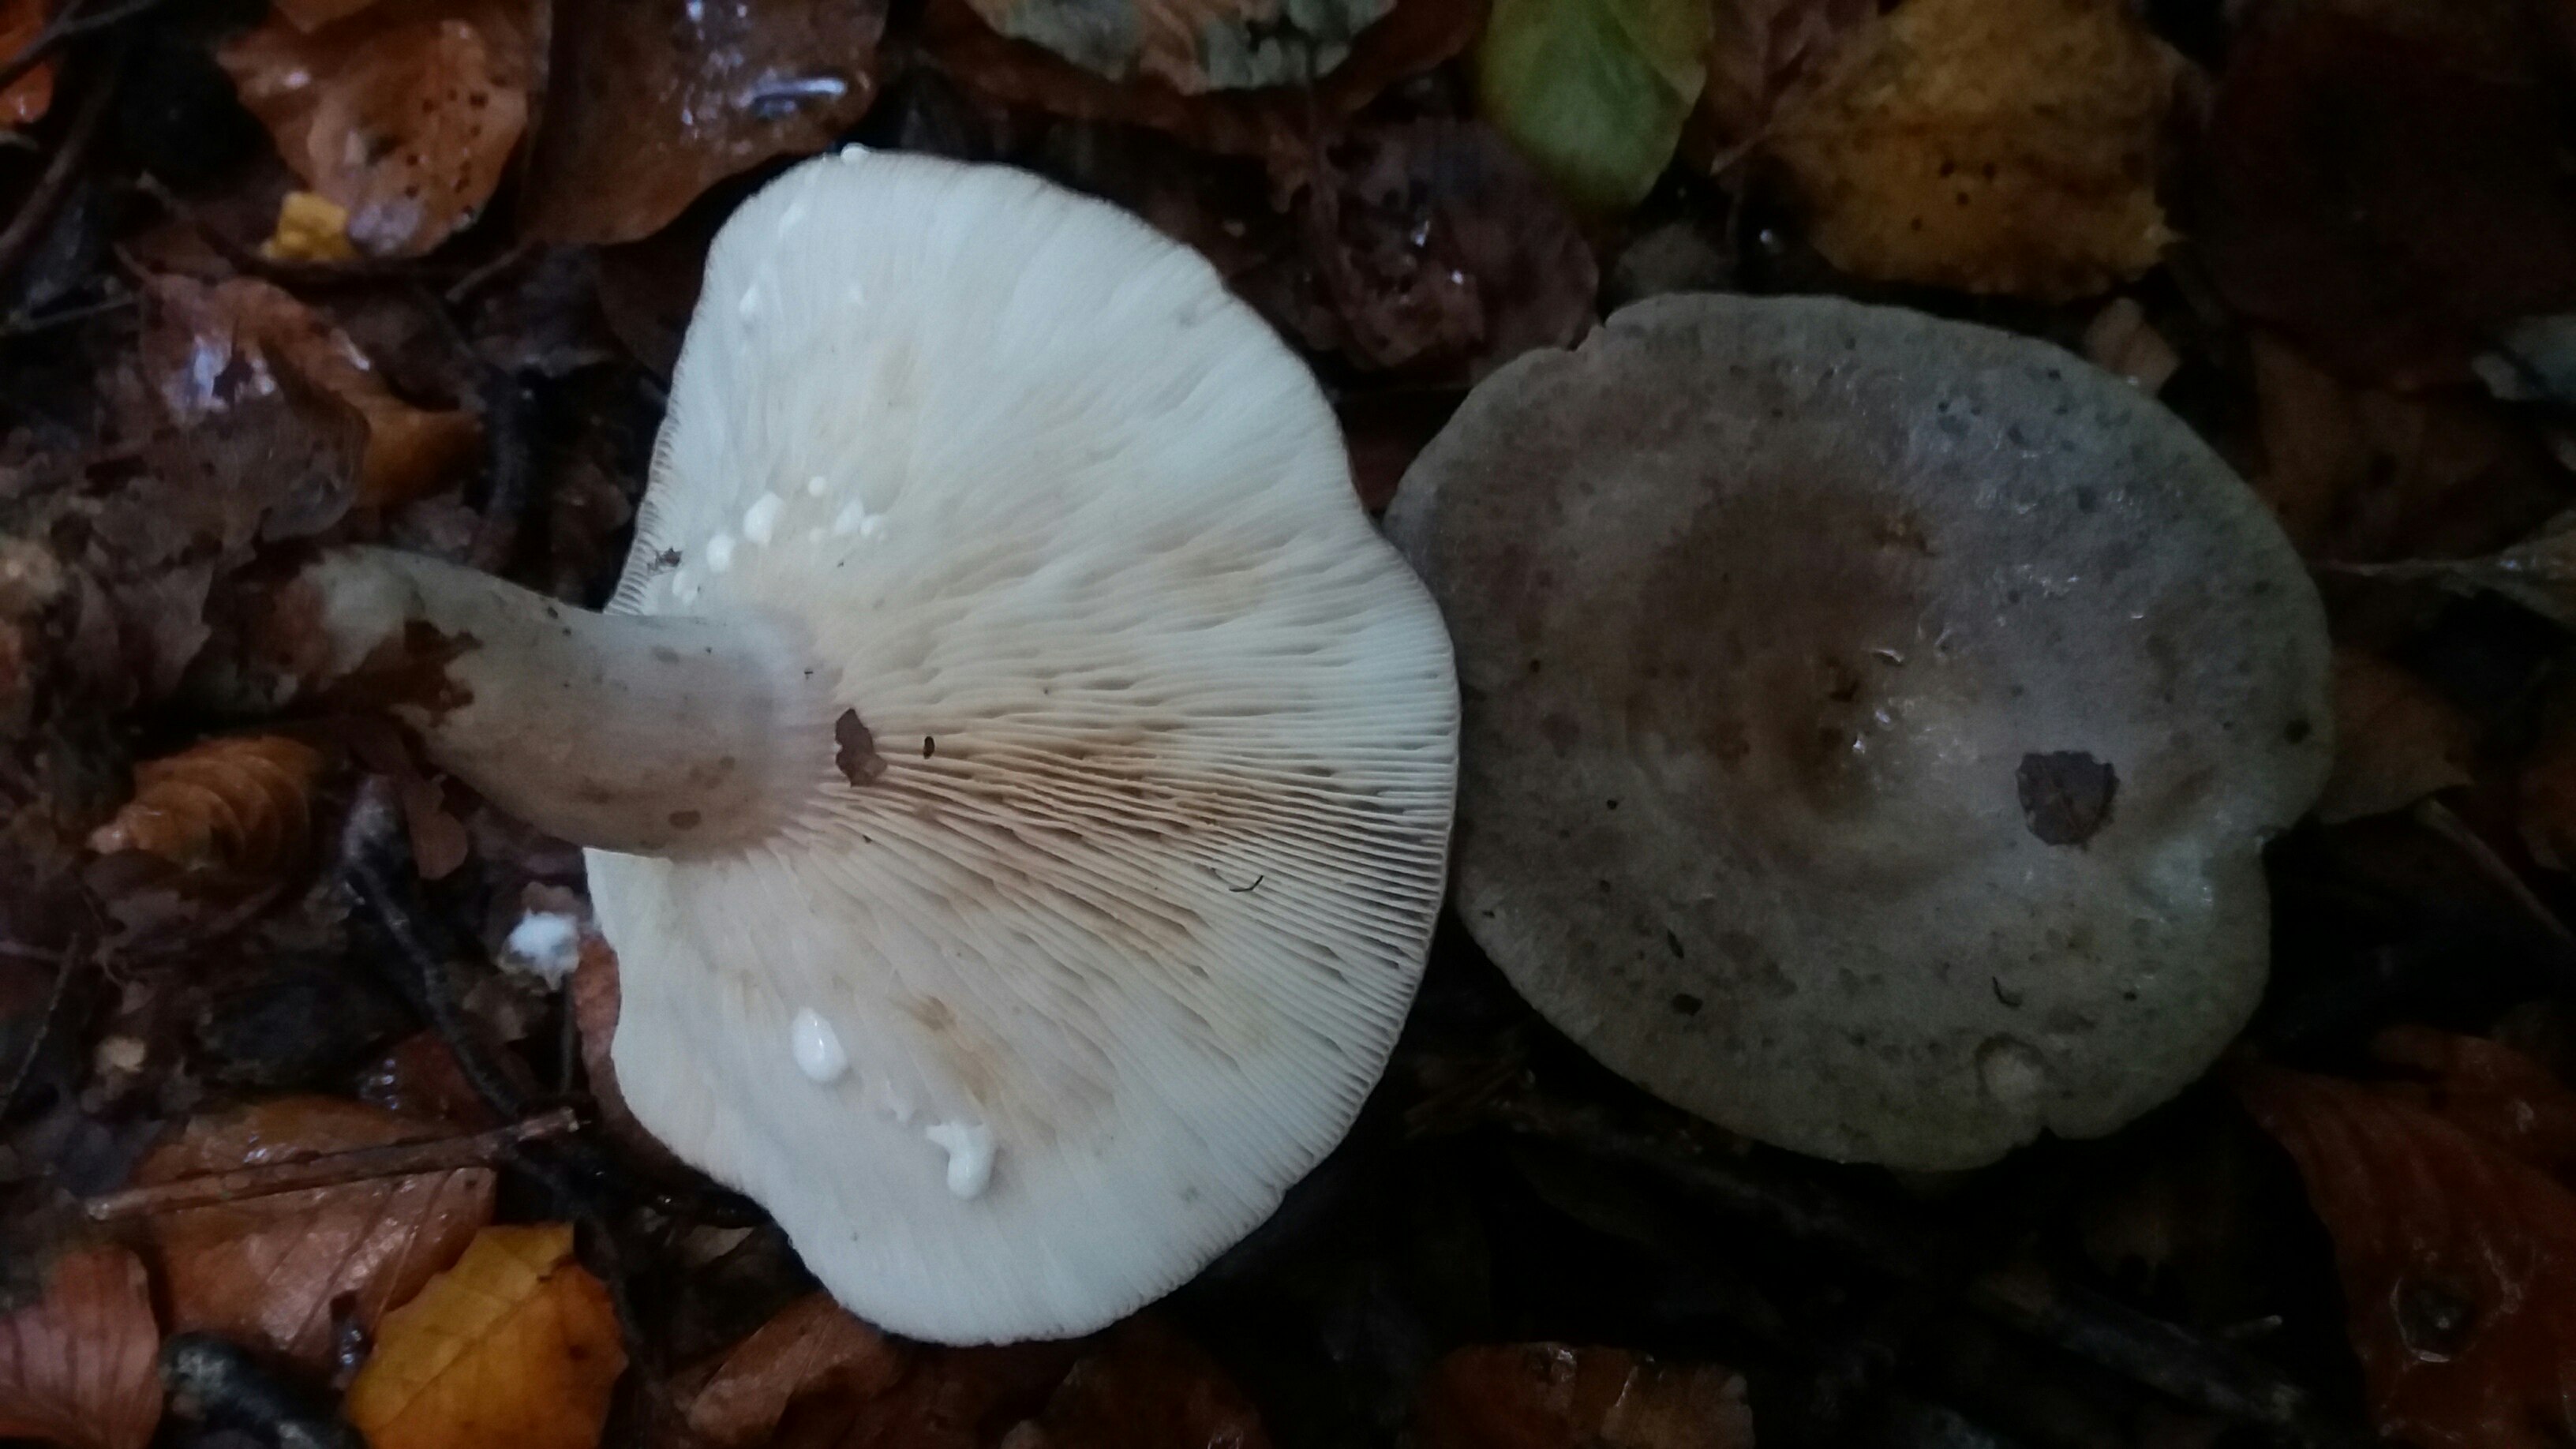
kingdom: Fungi
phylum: Basidiomycota
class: Agaricomycetes
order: Russulales
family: Russulaceae
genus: Lactarius
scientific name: Lactarius blennius
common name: dråbeplettet mælkehat
